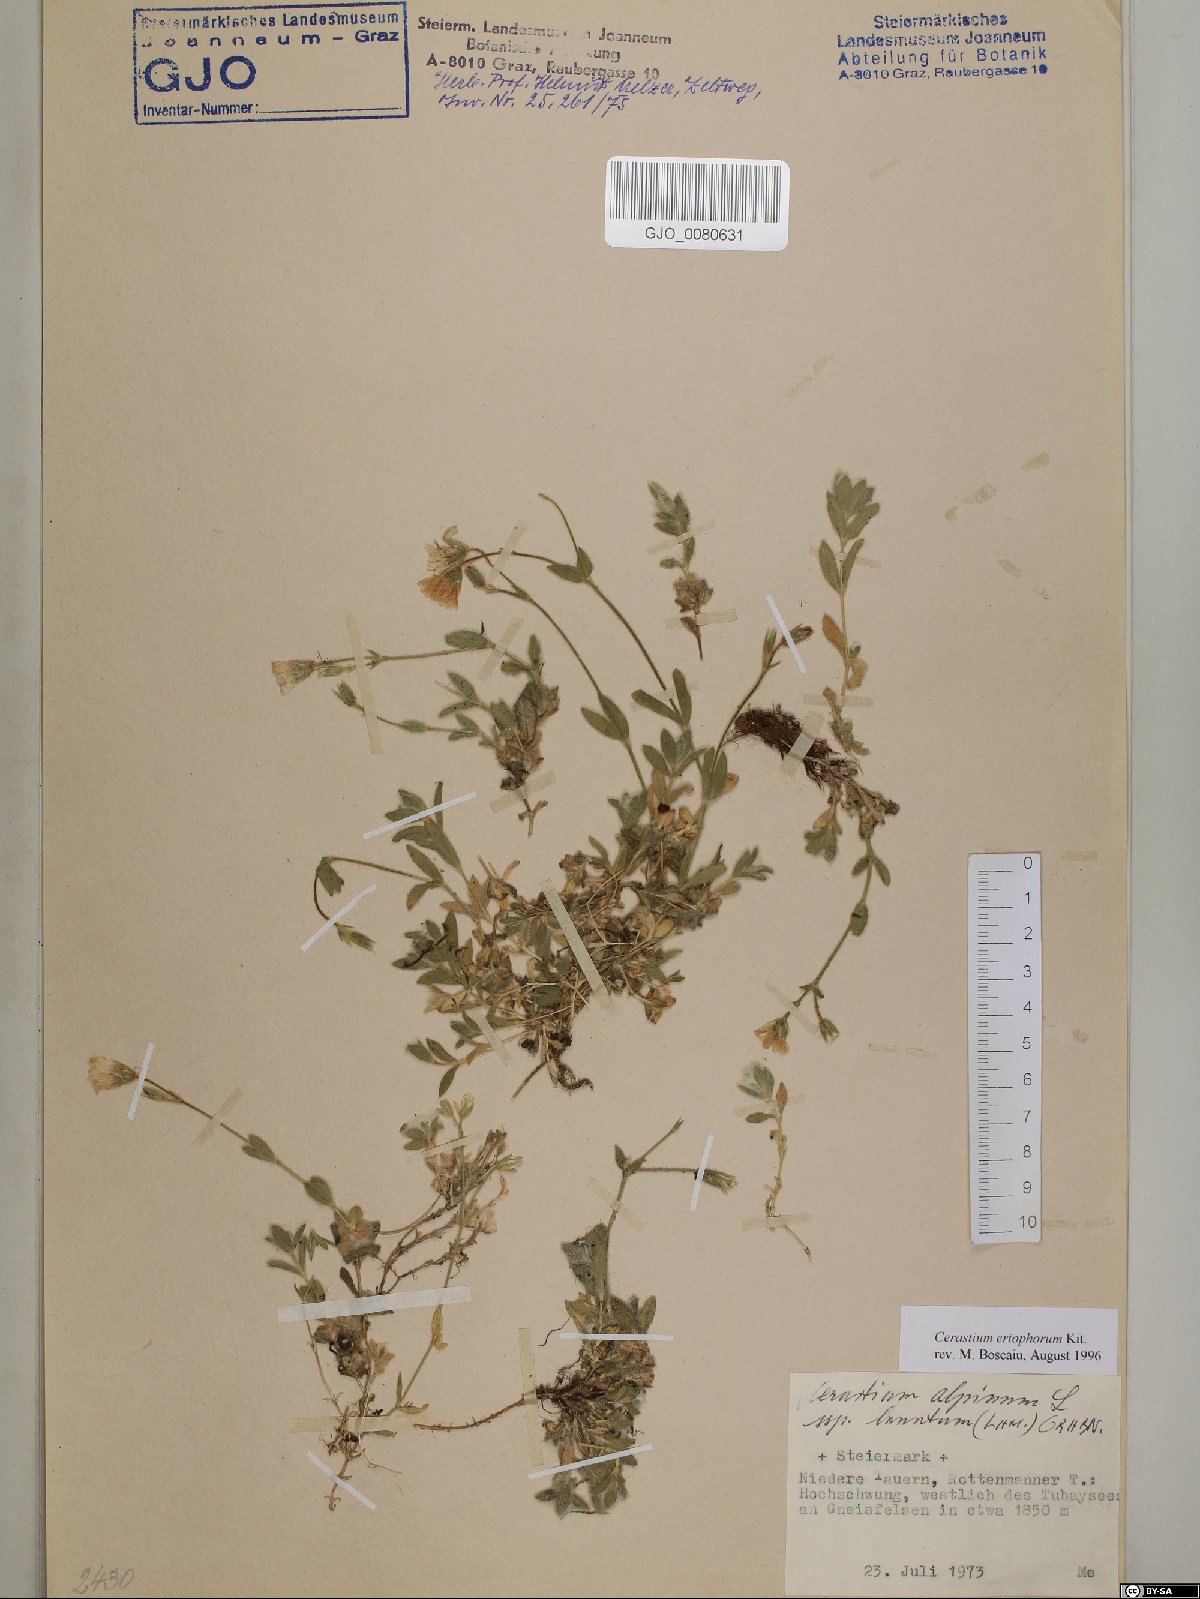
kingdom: Plantae
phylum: Tracheophyta
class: Magnoliopsida
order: Caryophyllales
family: Caryophyllaceae
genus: Cerastium
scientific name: Cerastium eriophorum
